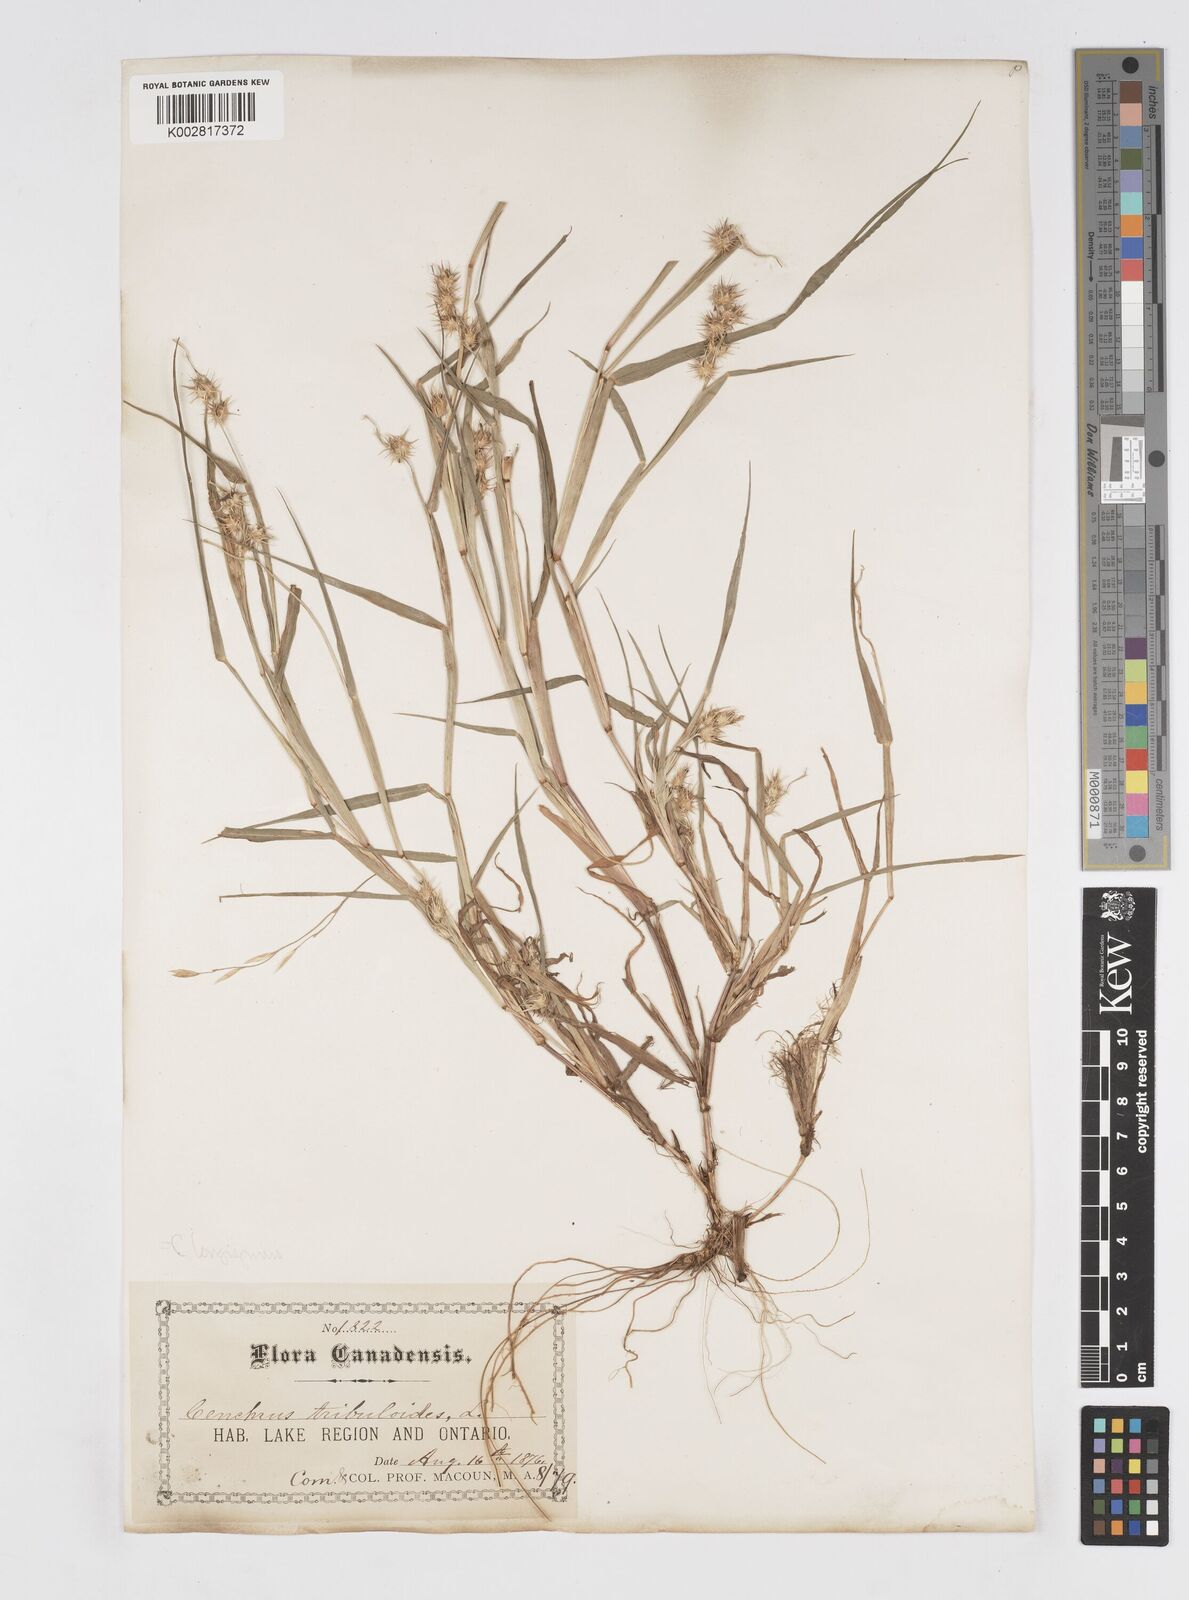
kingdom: Plantae
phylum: Tracheophyta
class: Liliopsida
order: Poales
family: Poaceae
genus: Cenchrus
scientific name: Cenchrus longispinus
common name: Mat sandbur
